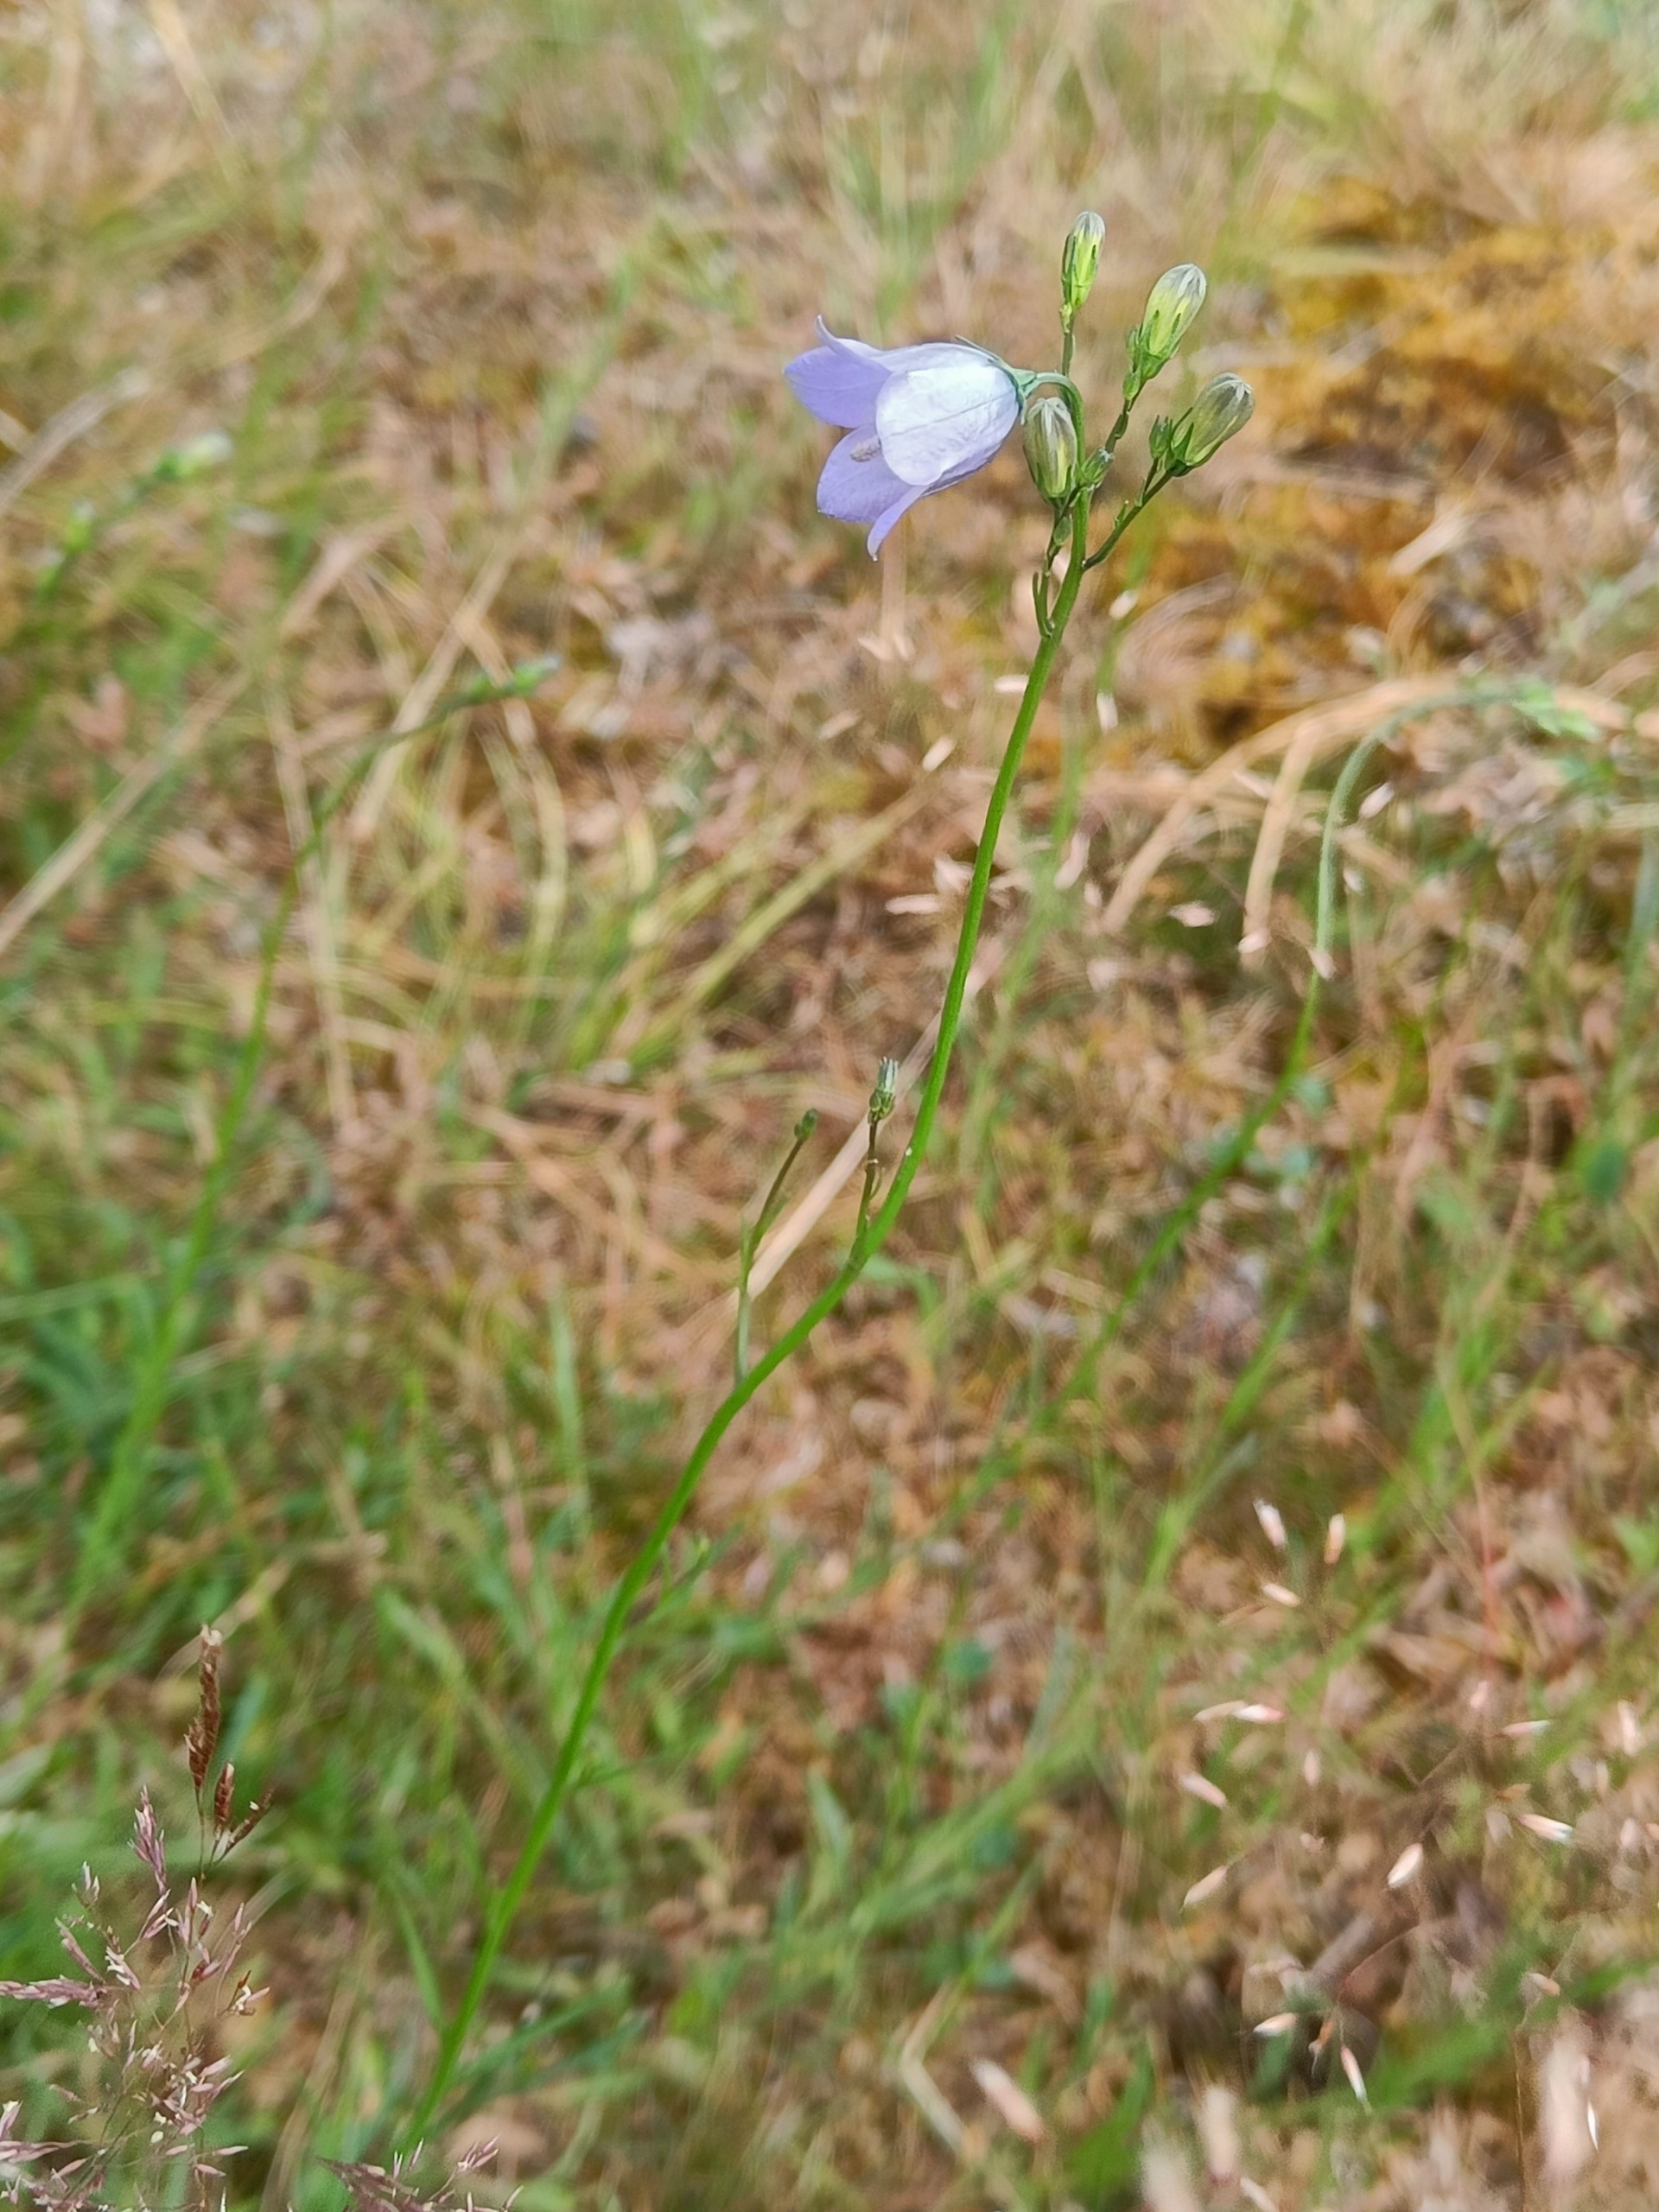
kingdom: Plantae
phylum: Tracheophyta
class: Magnoliopsida
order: Asterales
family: Campanulaceae
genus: Campanula
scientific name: Campanula rotundifolia
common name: Liden klokke
